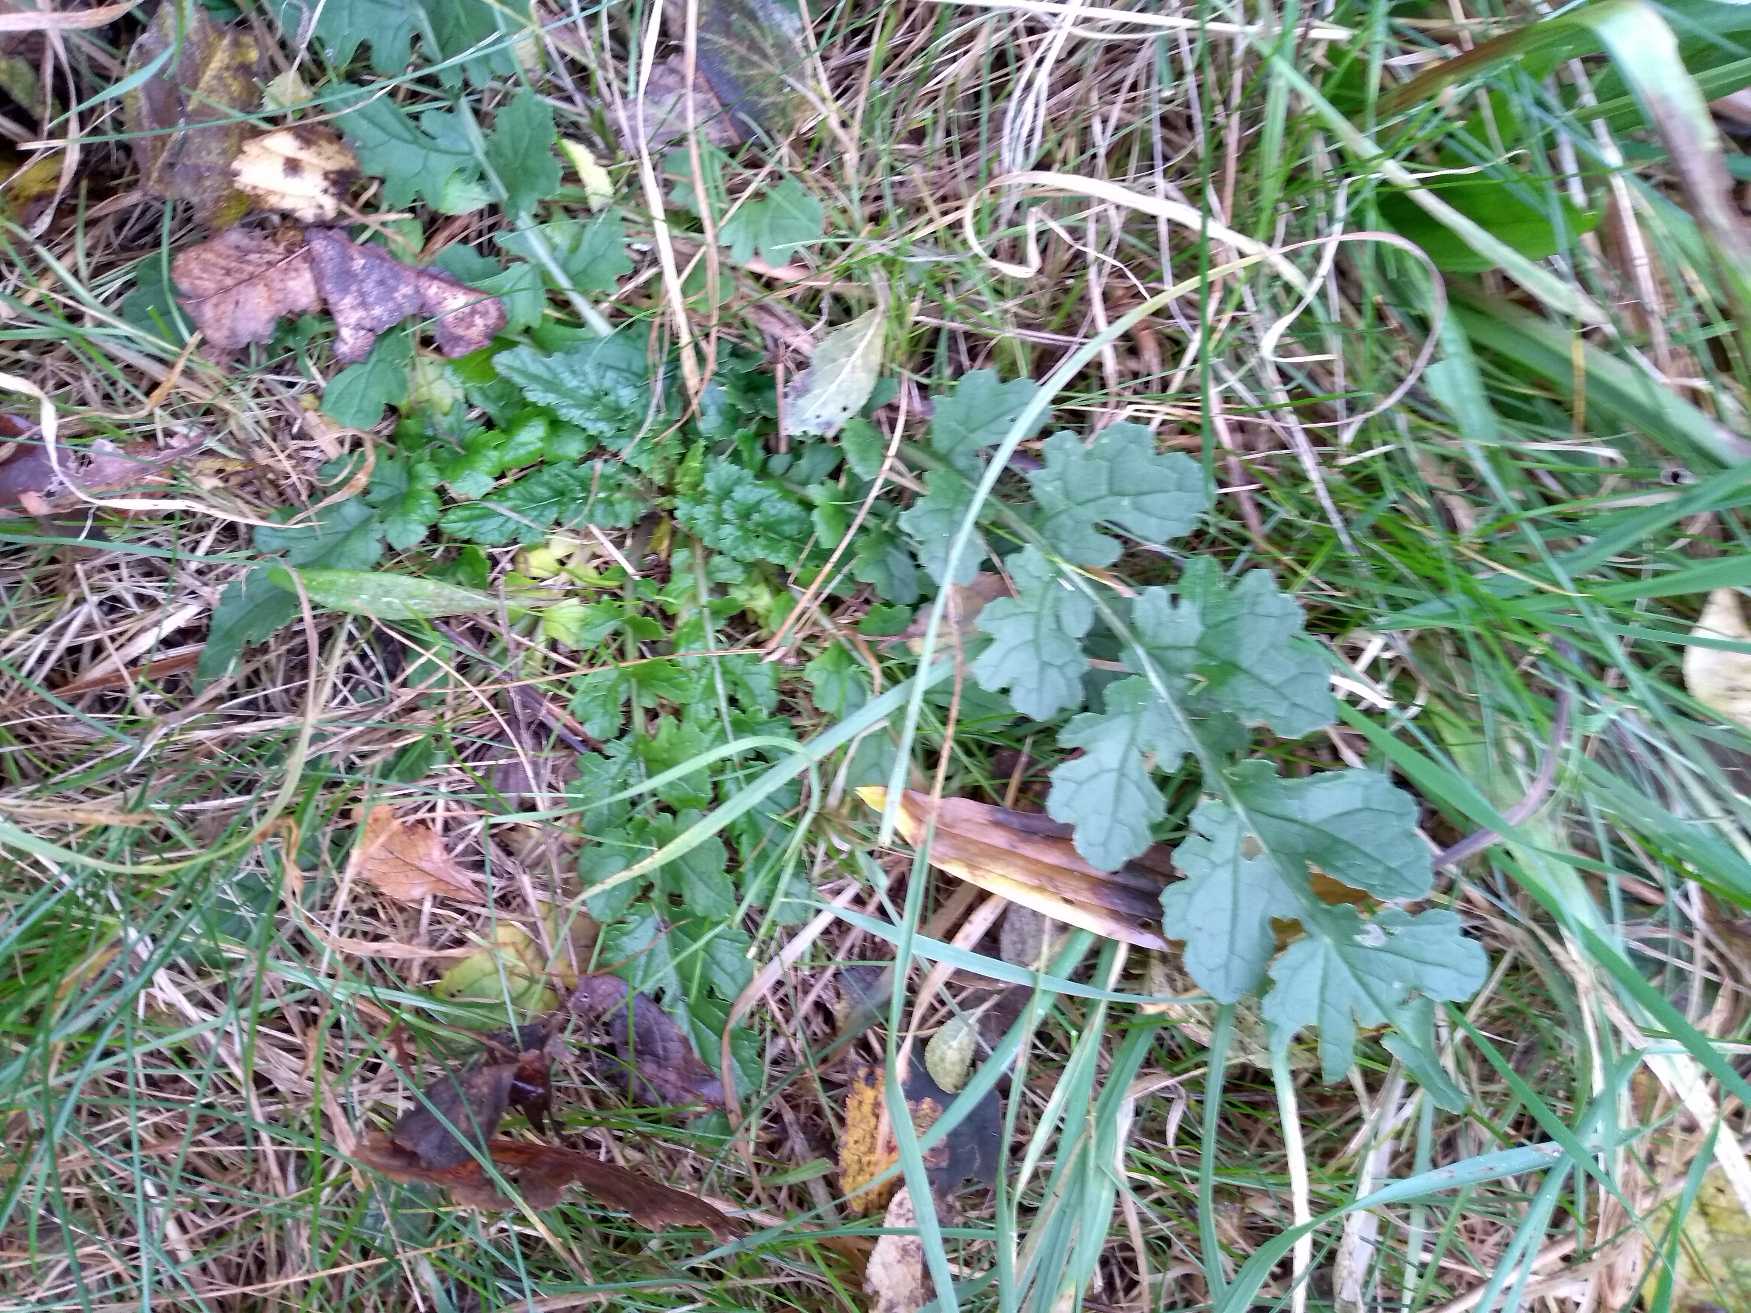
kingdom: Plantae
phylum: Tracheophyta
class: Magnoliopsida
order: Asterales
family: Asteraceae
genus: Jacobaea
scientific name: Jacobaea vulgaris
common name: Eng-brandbæger
